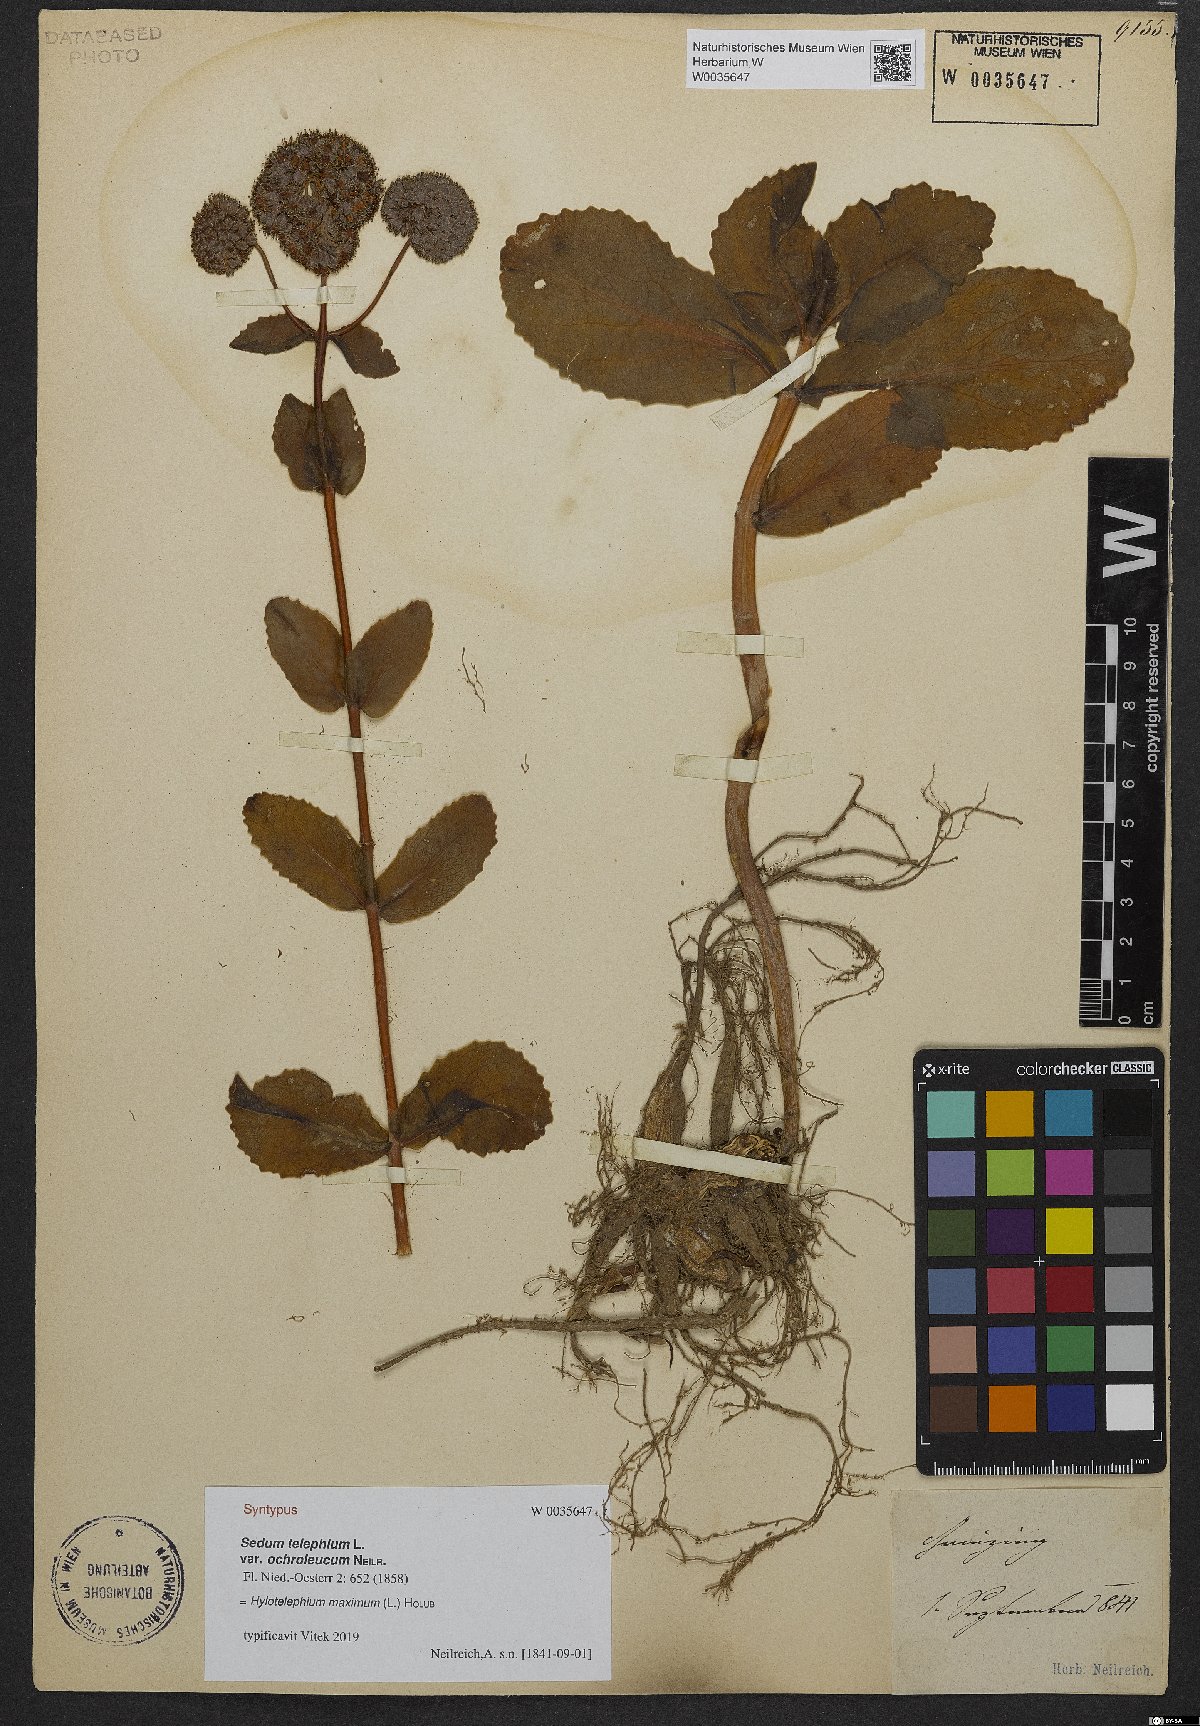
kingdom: Plantae
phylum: Tracheophyta
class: Magnoliopsida
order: Saxifragales
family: Crassulaceae
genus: Hylotelephium
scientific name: Hylotelephium telephium
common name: Live-forever
